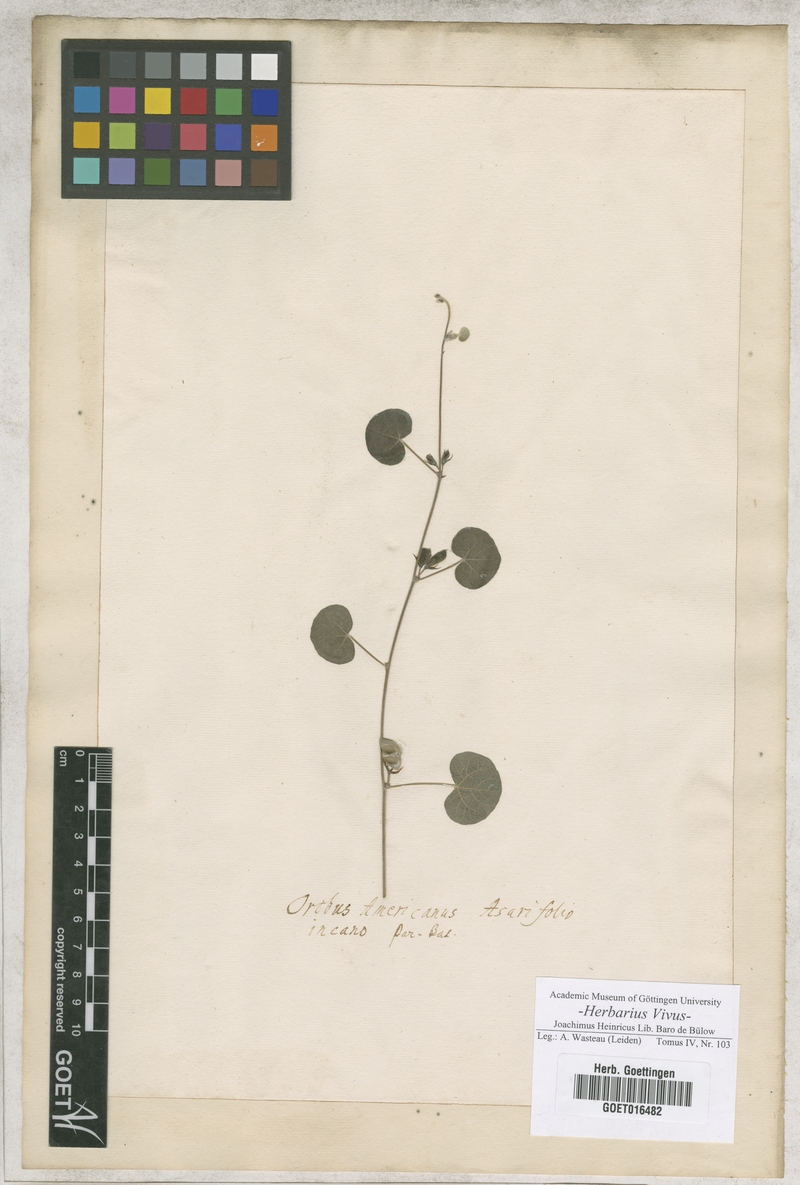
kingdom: Plantae
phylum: Tracheophyta
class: Magnoliopsida
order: Fabales
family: Fabaceae
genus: Lathyrus
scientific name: Lathyrus
